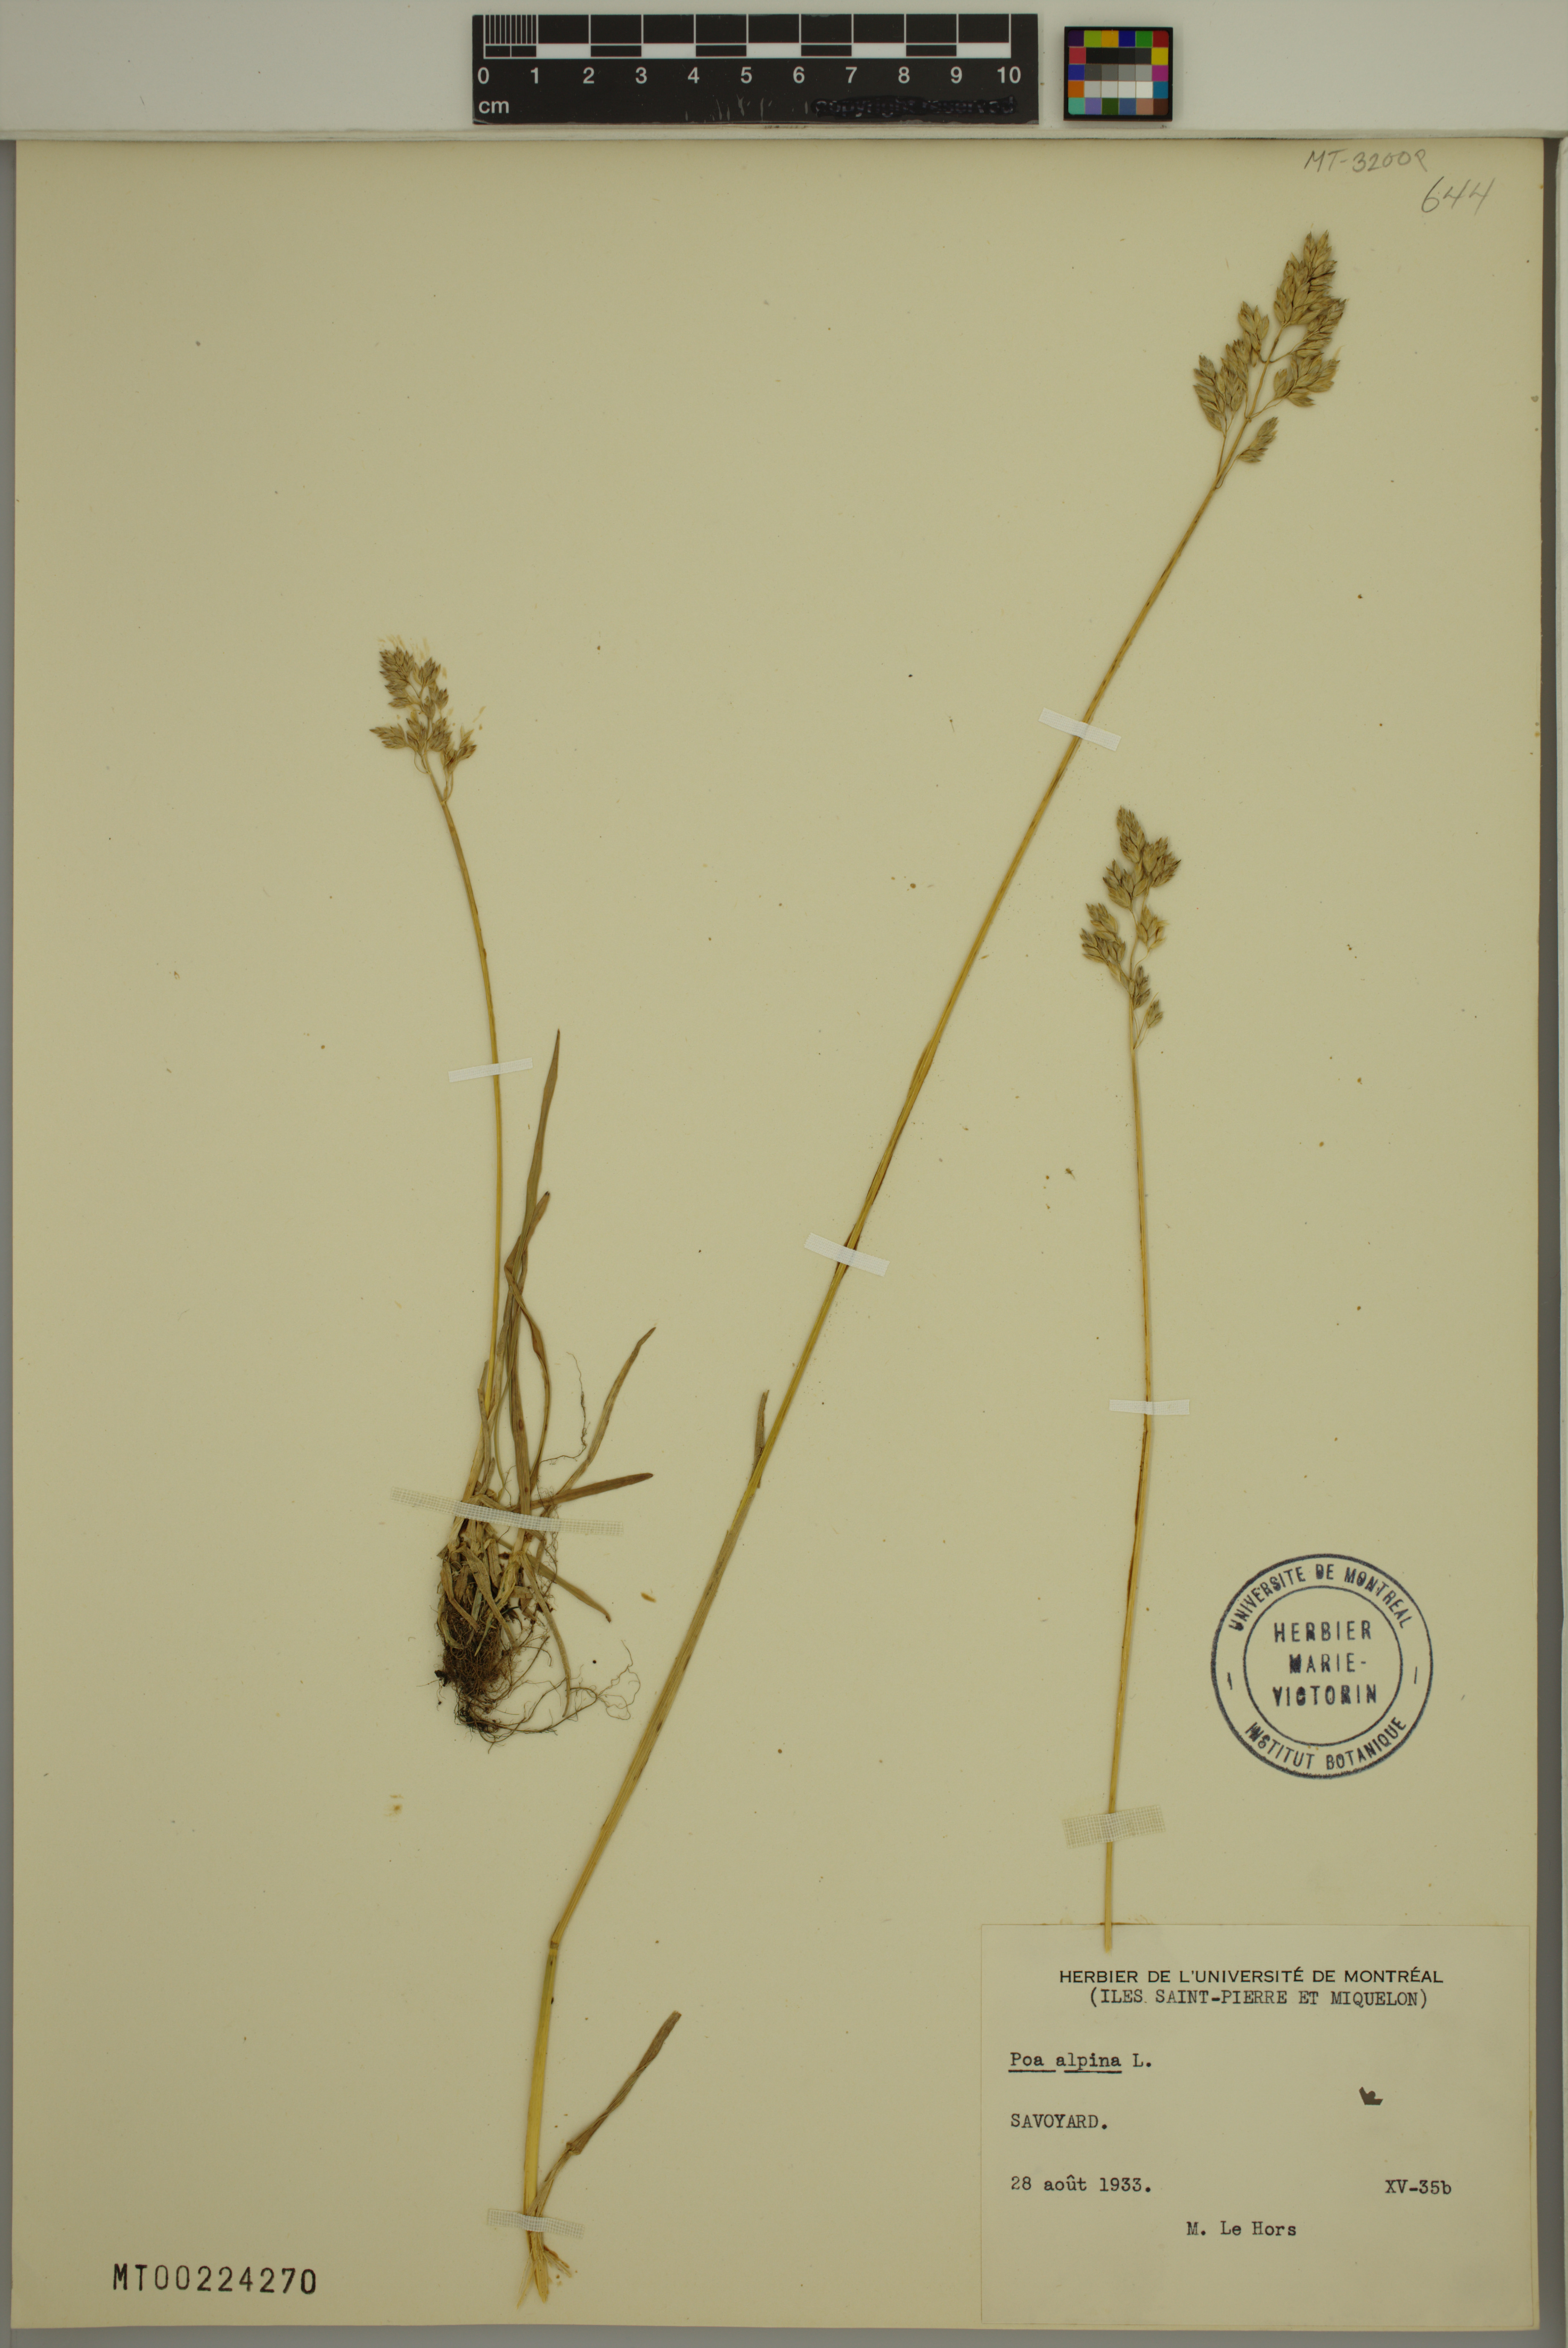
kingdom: Plantae
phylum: Tracheophyta
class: Liliopsida
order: Poales
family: Poaceae
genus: Poa
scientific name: Poa alpina
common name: Alpine bluegrass
